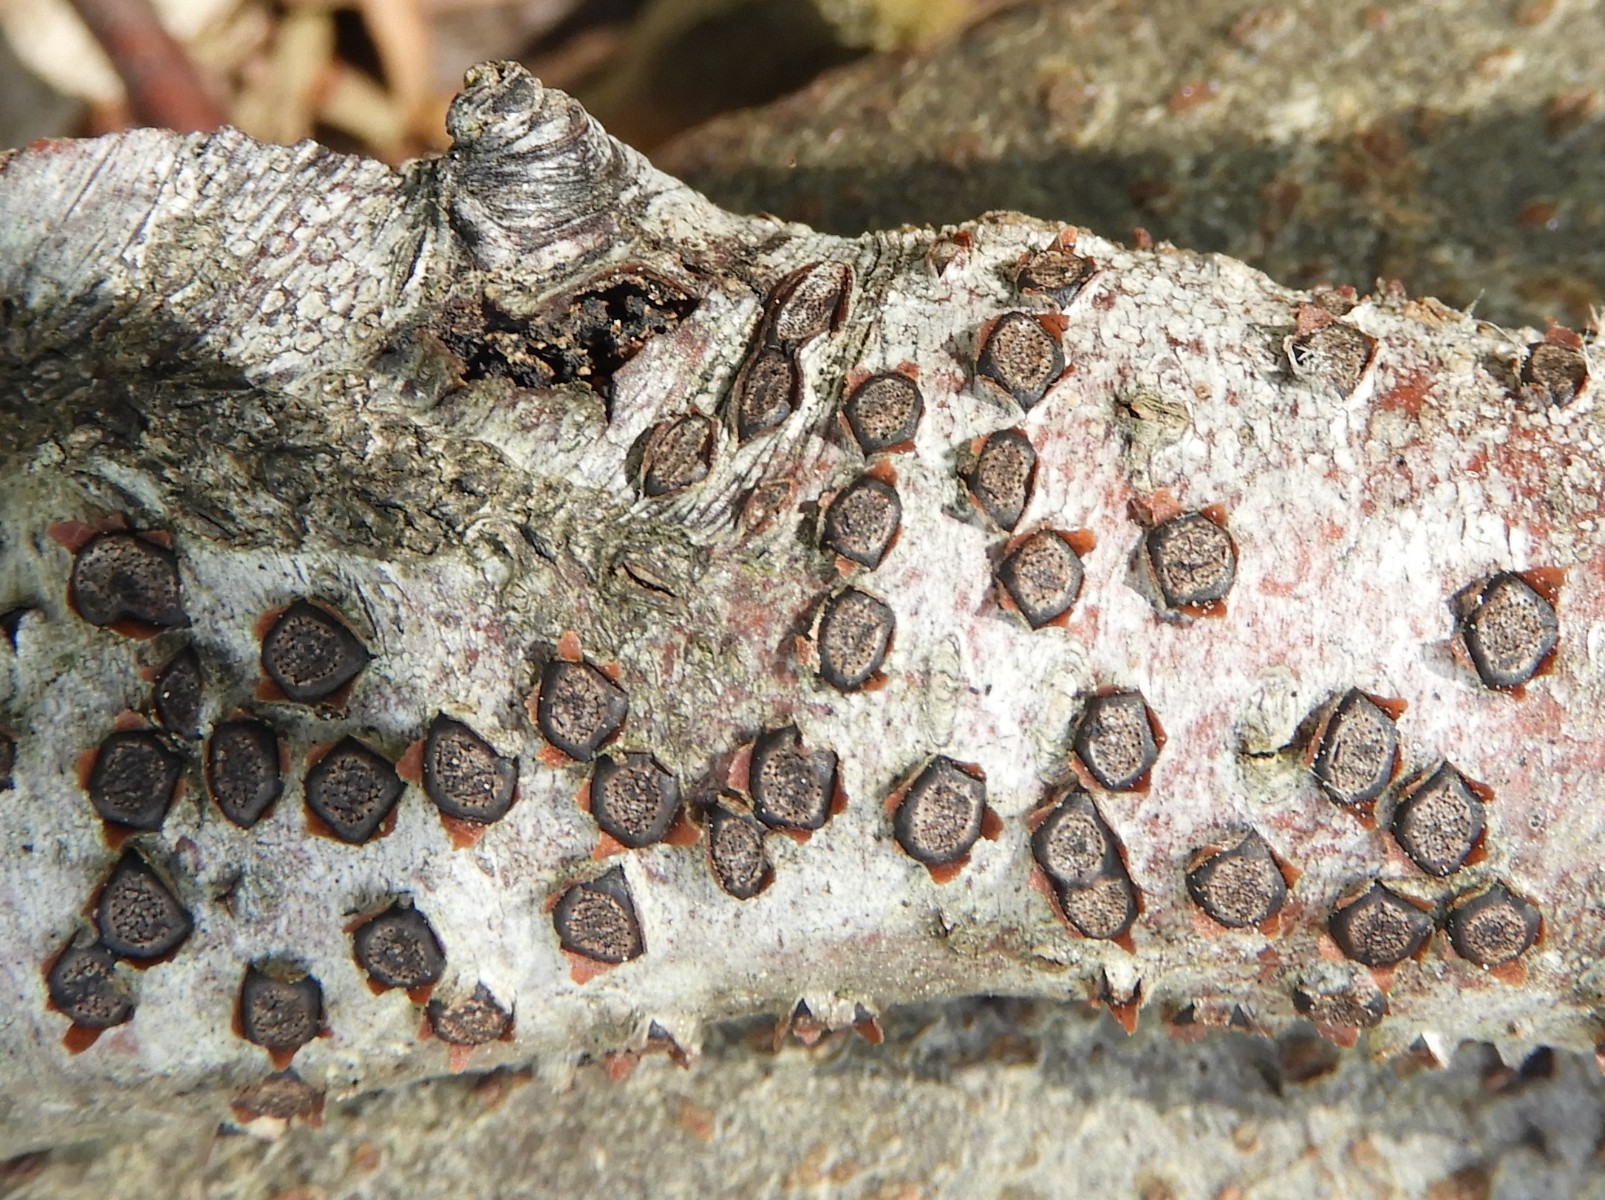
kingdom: Fungi
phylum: Ascomycota
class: Sordariomycetes
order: Xylariales
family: Diatrypaceae
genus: Diatrype
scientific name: Diatrype disciformis
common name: kant-kulskorpe
